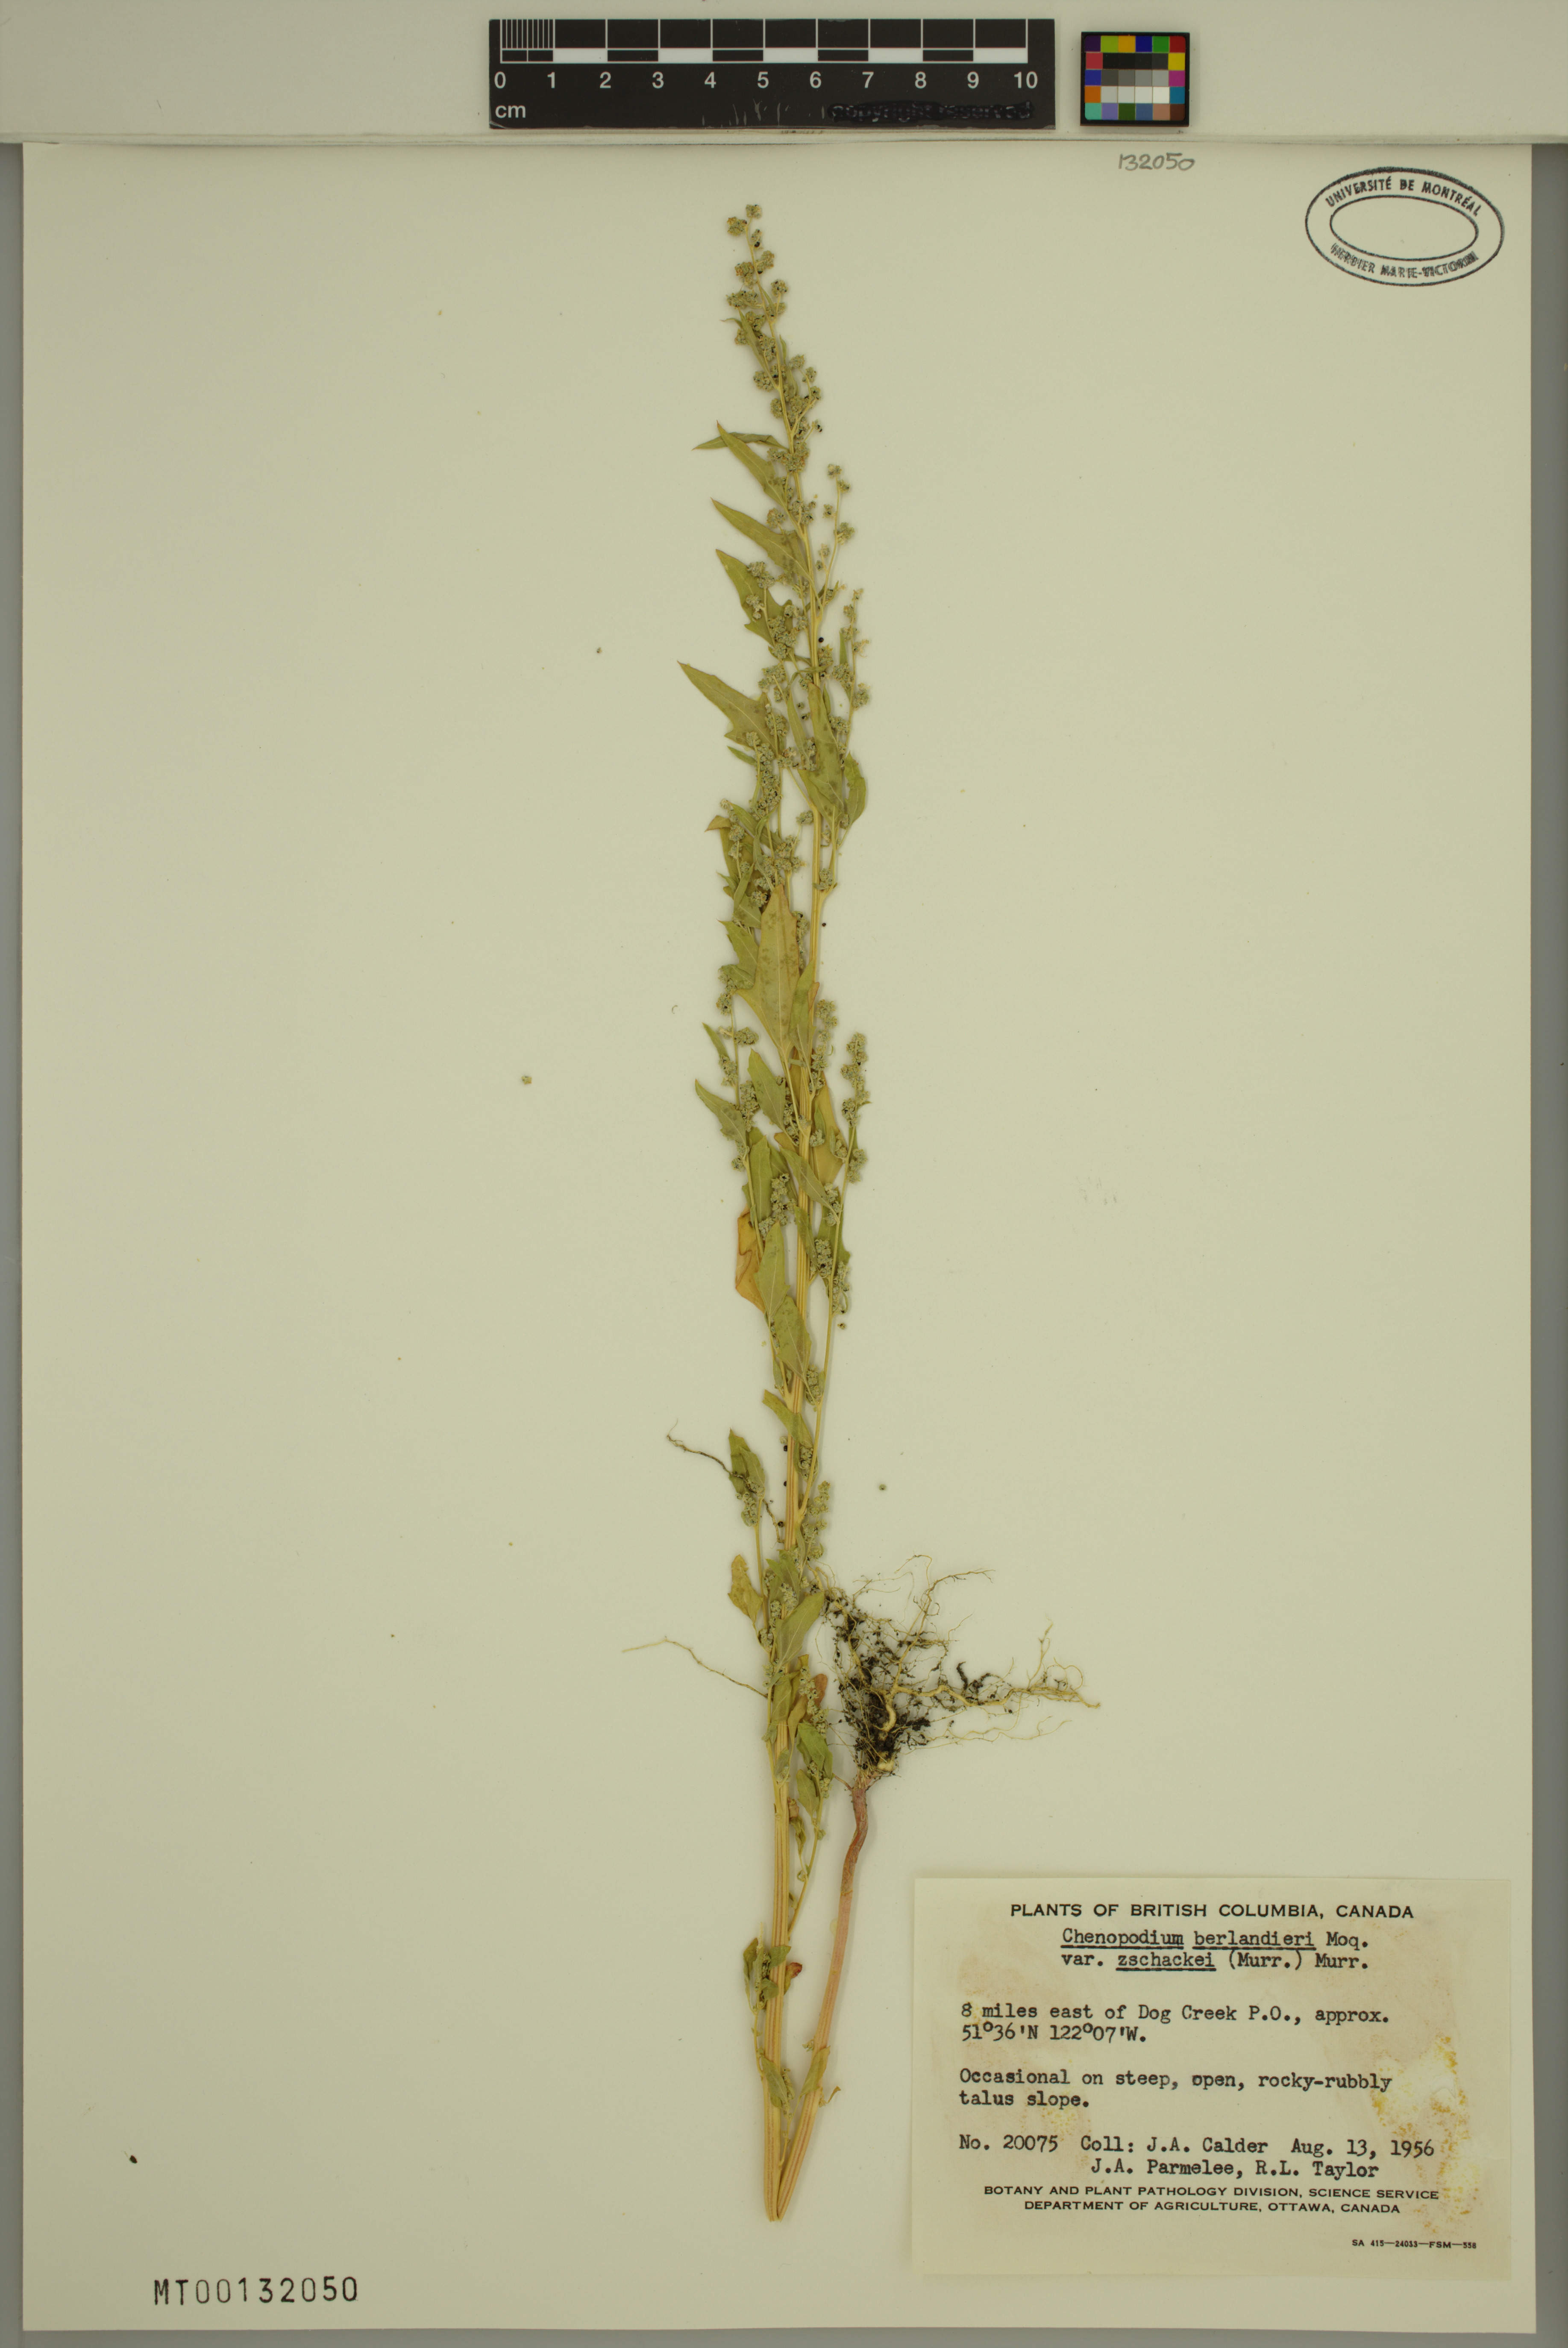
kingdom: Plantae
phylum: Tracheophyta
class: Magnoliopsida
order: Caryophyllales
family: Amaranthaceae
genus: Chenopodium
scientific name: Chenopodium berlandieri
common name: Pit-seed goosefoot
